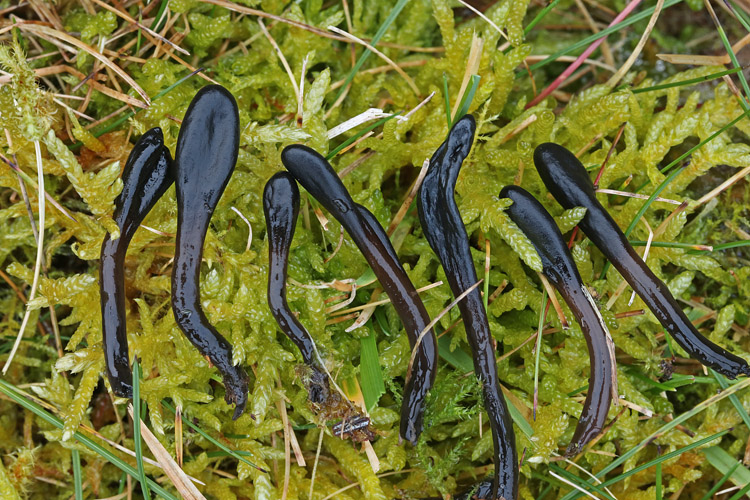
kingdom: Fungi
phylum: Ascomycota
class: Geoglossomycetes
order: Geoglossales
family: Geoglossaceae
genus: Glutinoglossum
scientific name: Glutinoglossum glutinosum
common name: slimet jordtunge
